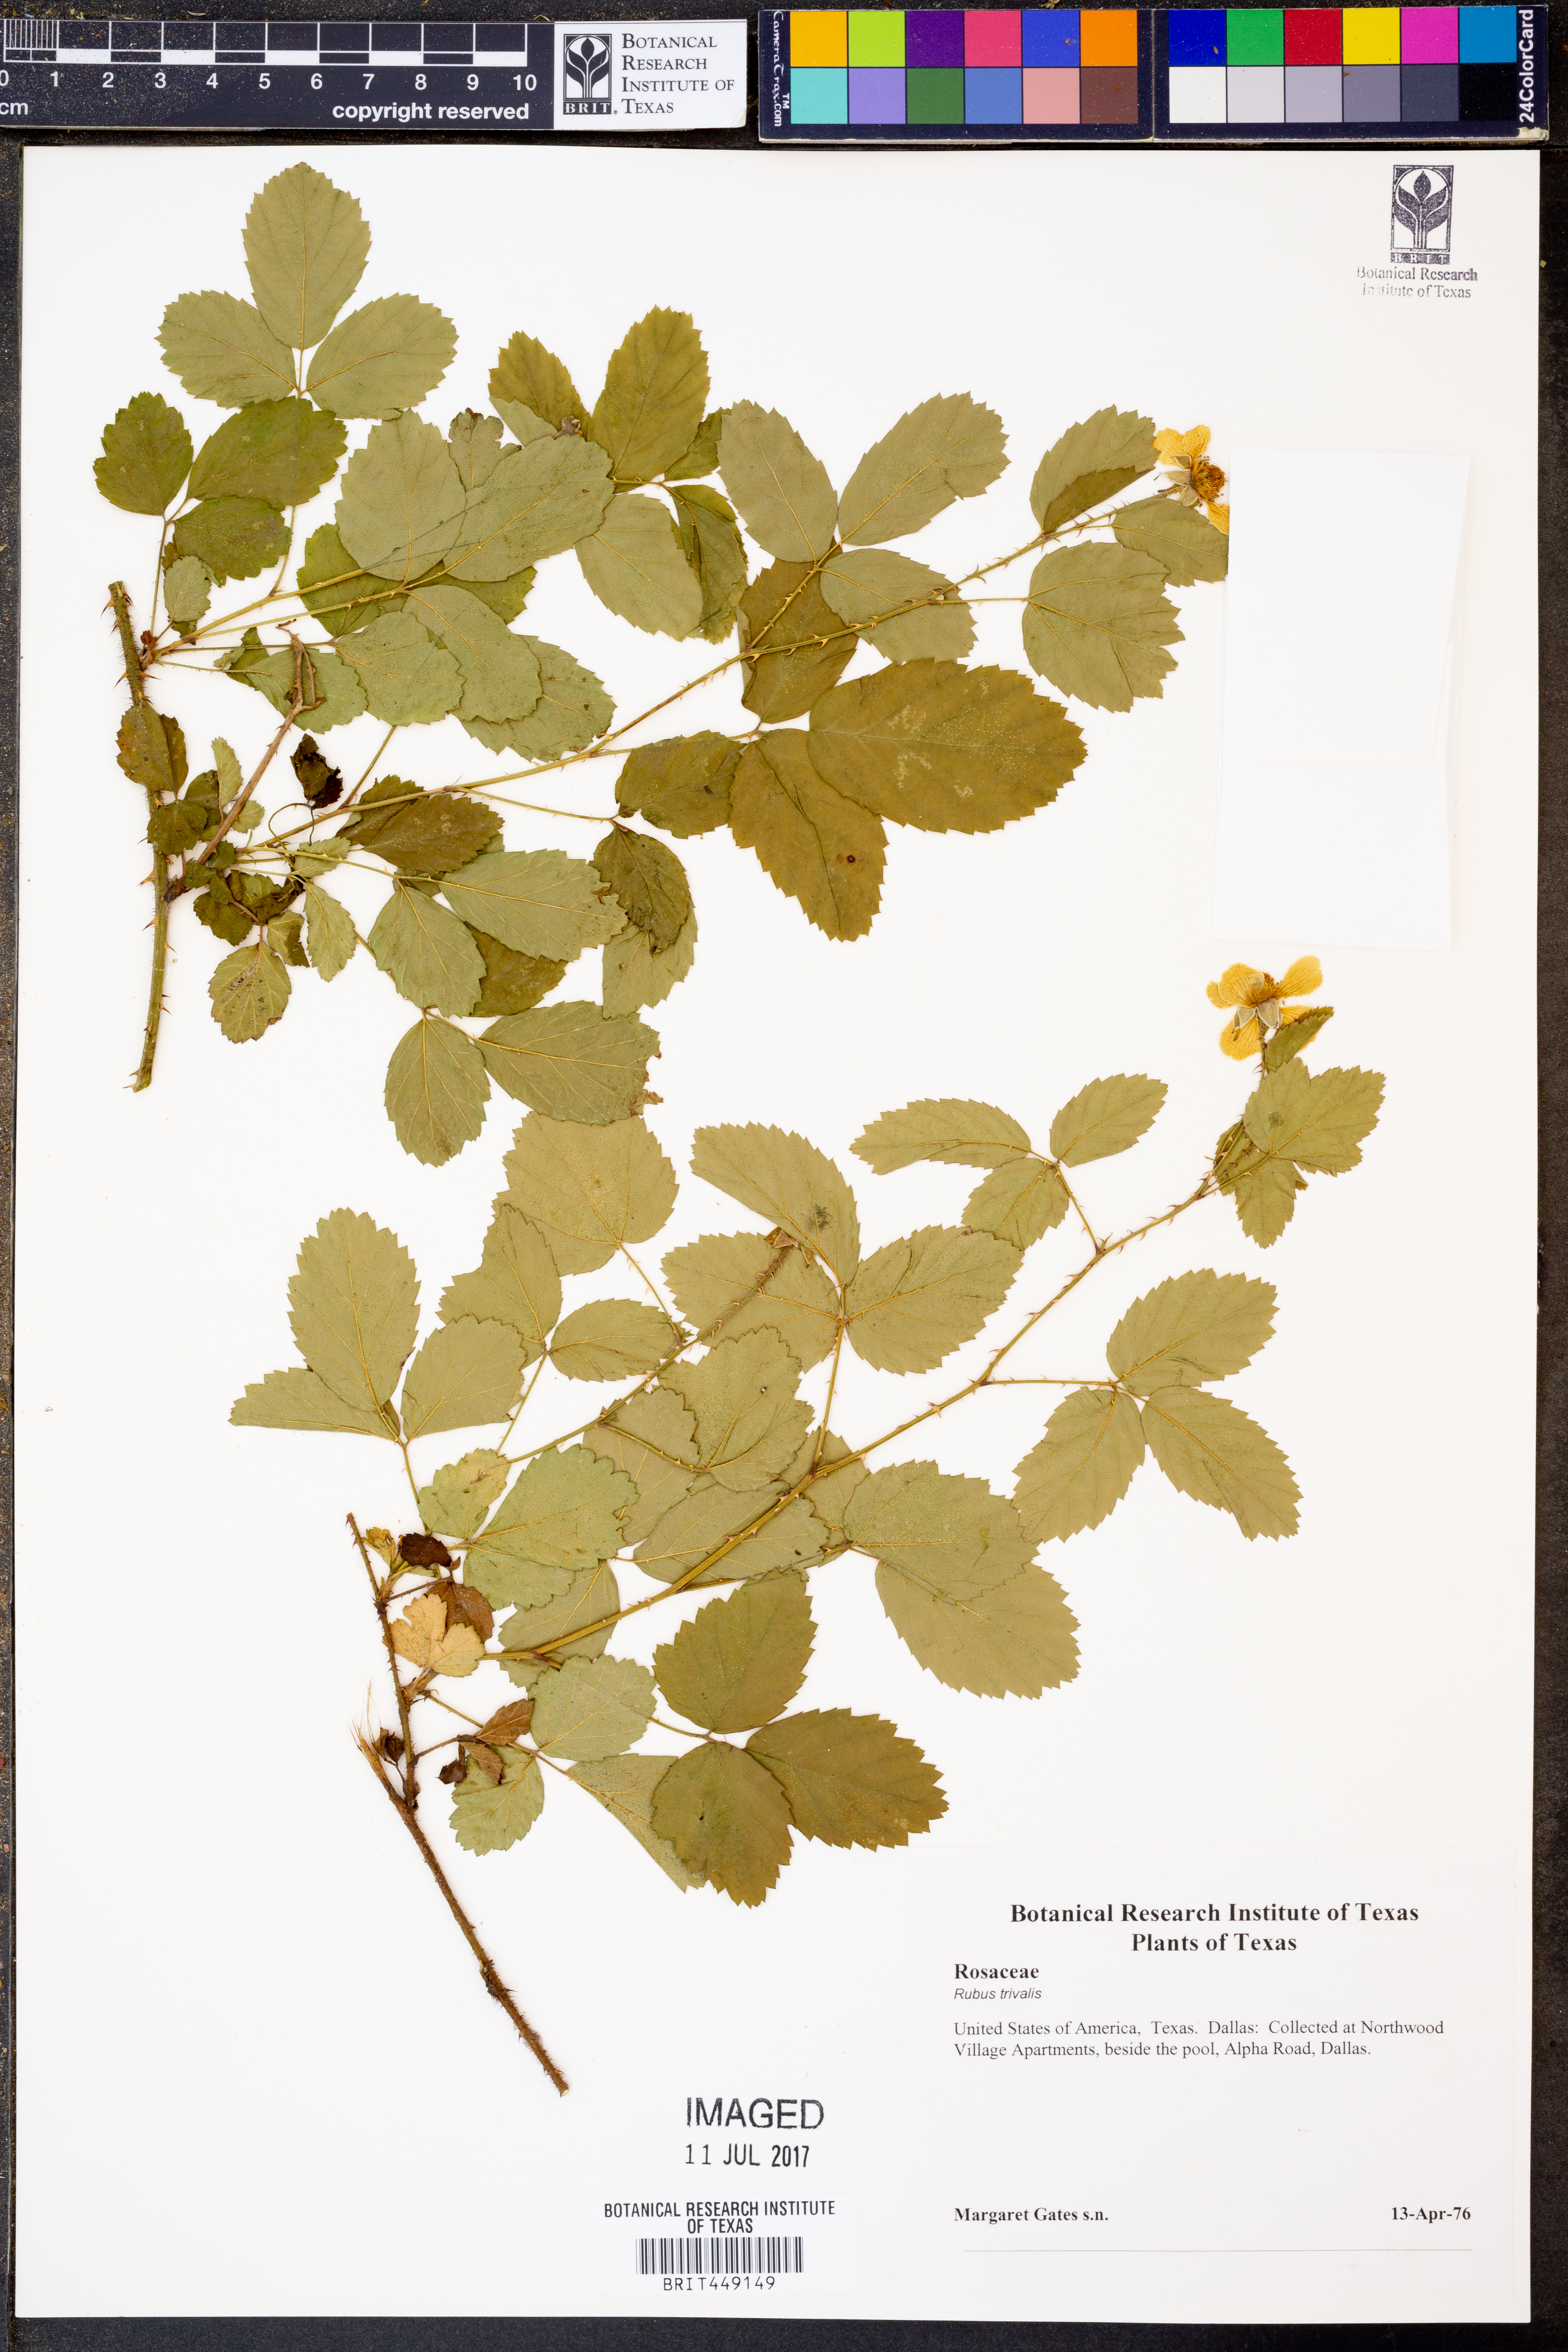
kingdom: Plantae
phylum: Tracheophyta
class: Magnoliopsida
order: Rosales
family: Rosaceae
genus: Rubus
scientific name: Rubus trivialis
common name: Southern dewberry
